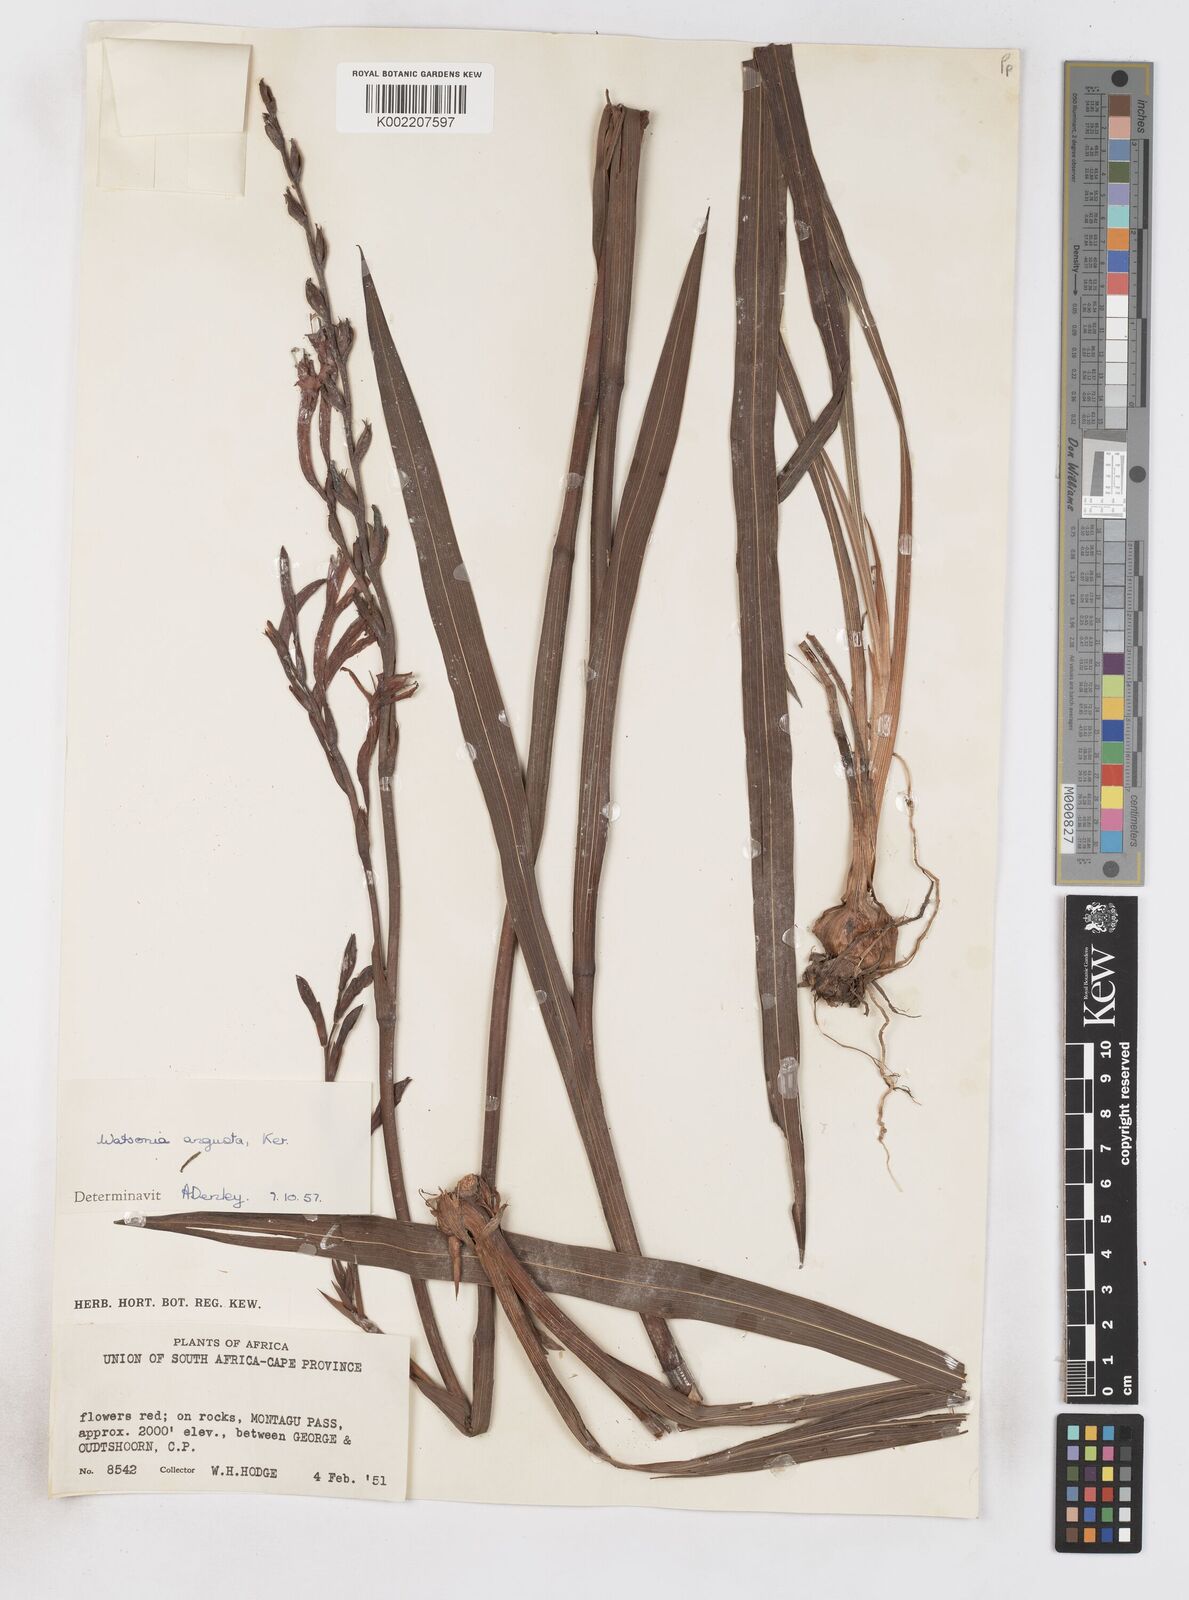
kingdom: Plantae
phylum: Tracheophyta
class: Liliopsida
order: Asparagales
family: Iridaceae
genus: Watsonia
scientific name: Watsonia angusta
